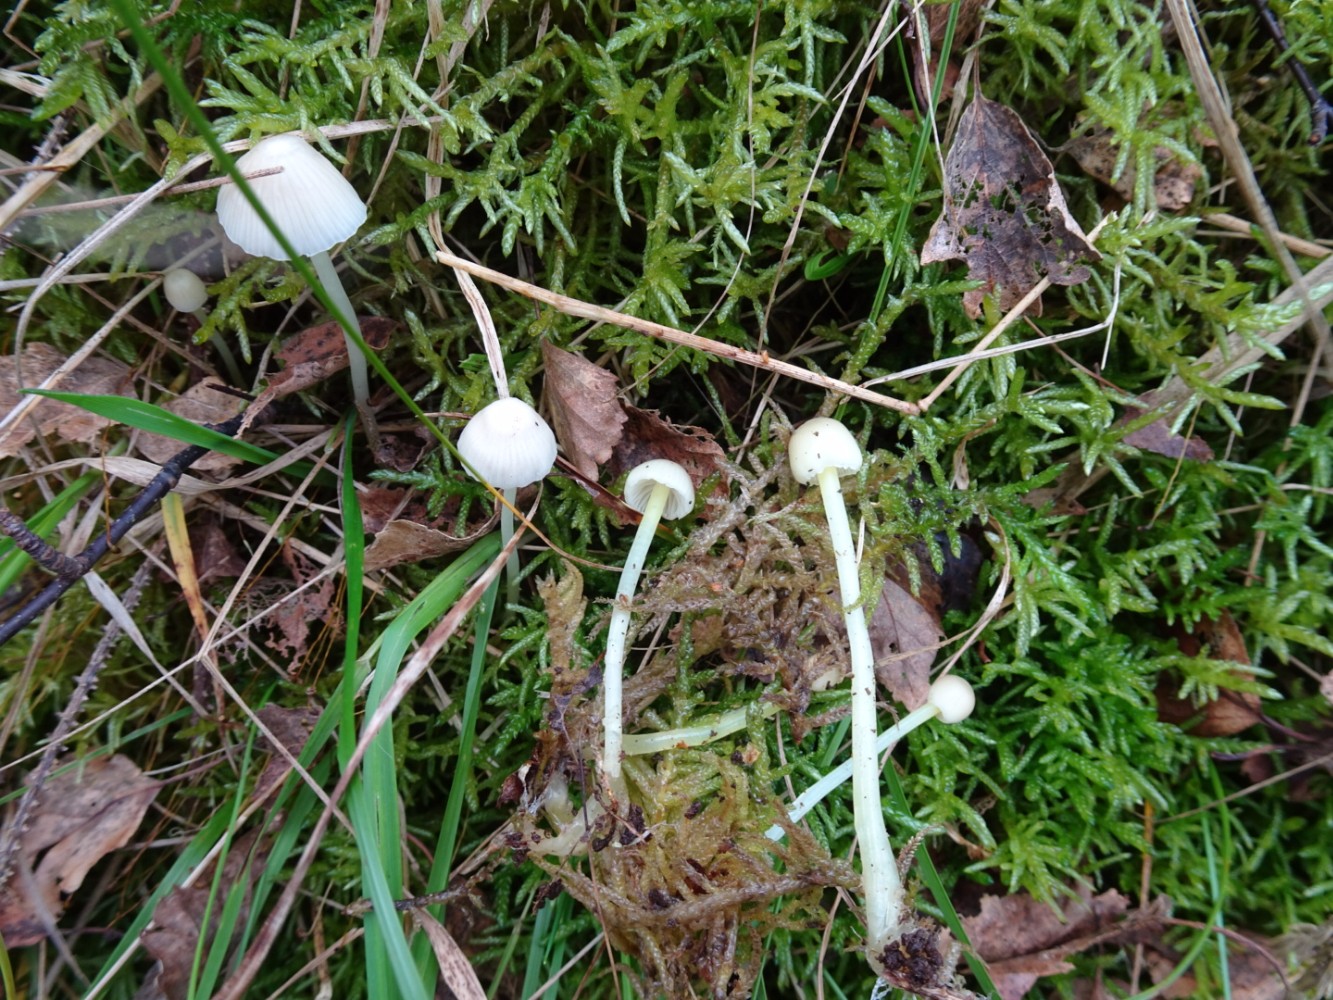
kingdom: Fungi
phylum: Basidiomycota
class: Agaricomycetes
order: Agaricales
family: Mycenaceae
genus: Mycena
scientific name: Mycena epipterygia
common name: gulstokket huesvamp
